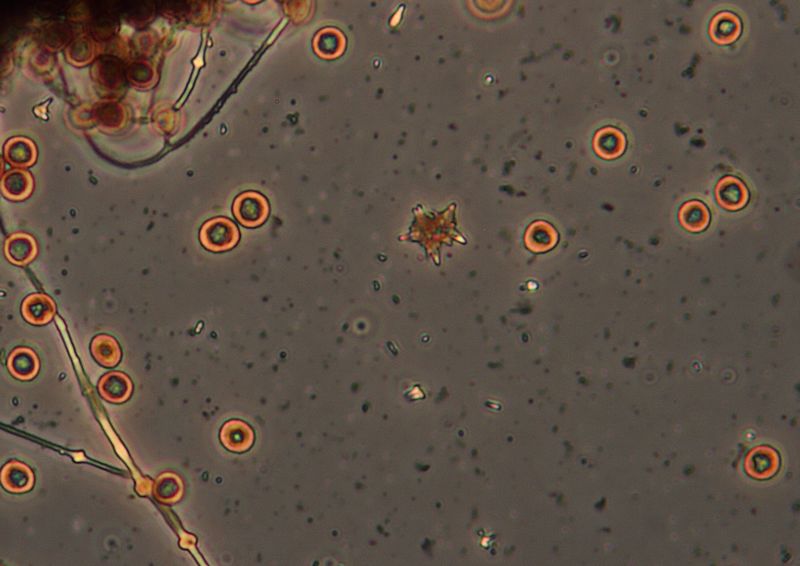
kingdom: Protozoa
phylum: Mycetozoa
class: Myxomycetes
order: Physarales
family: Didymiaceae
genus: Didymium
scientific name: Didymium squamulosum
